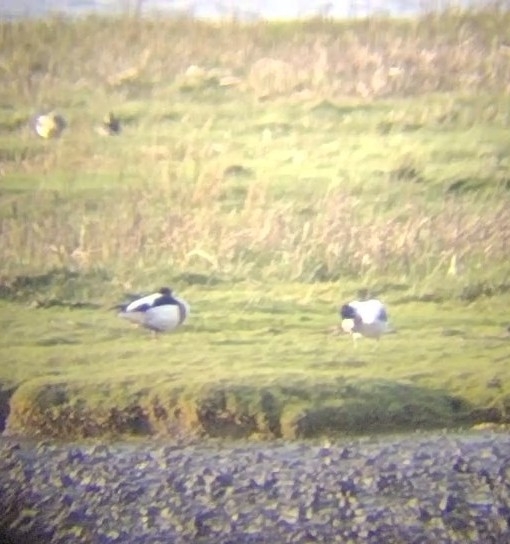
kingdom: Animalia
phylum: Chordata
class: Aves
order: Anseriformes
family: Anatidae
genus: Tadorna
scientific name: Tadorna tadorna
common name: Gravand
